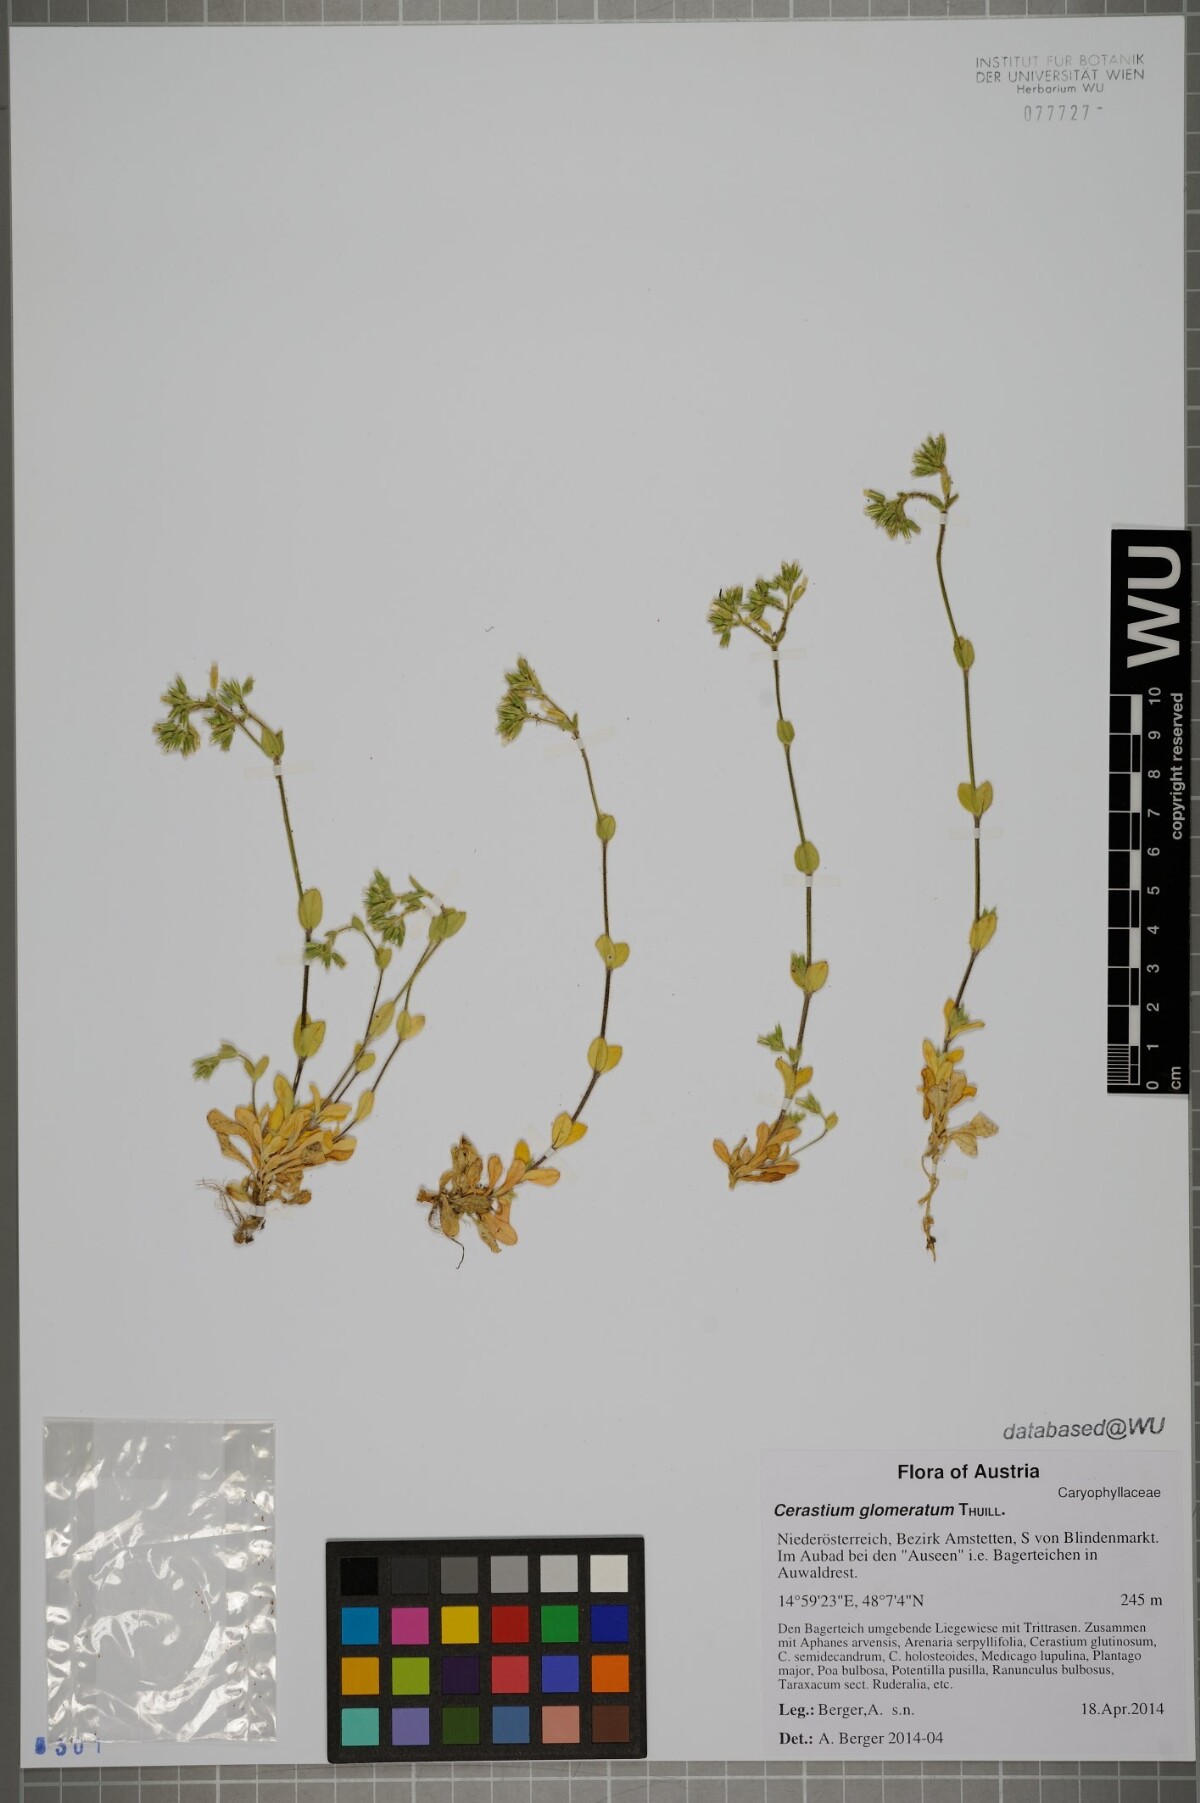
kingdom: Plantae
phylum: Tracheophyta
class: Magnoliopsida
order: Caryophyllales
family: Caryophyllaceae
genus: Cerastium
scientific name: Cerastium glomeratum
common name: Sticky chickweed
